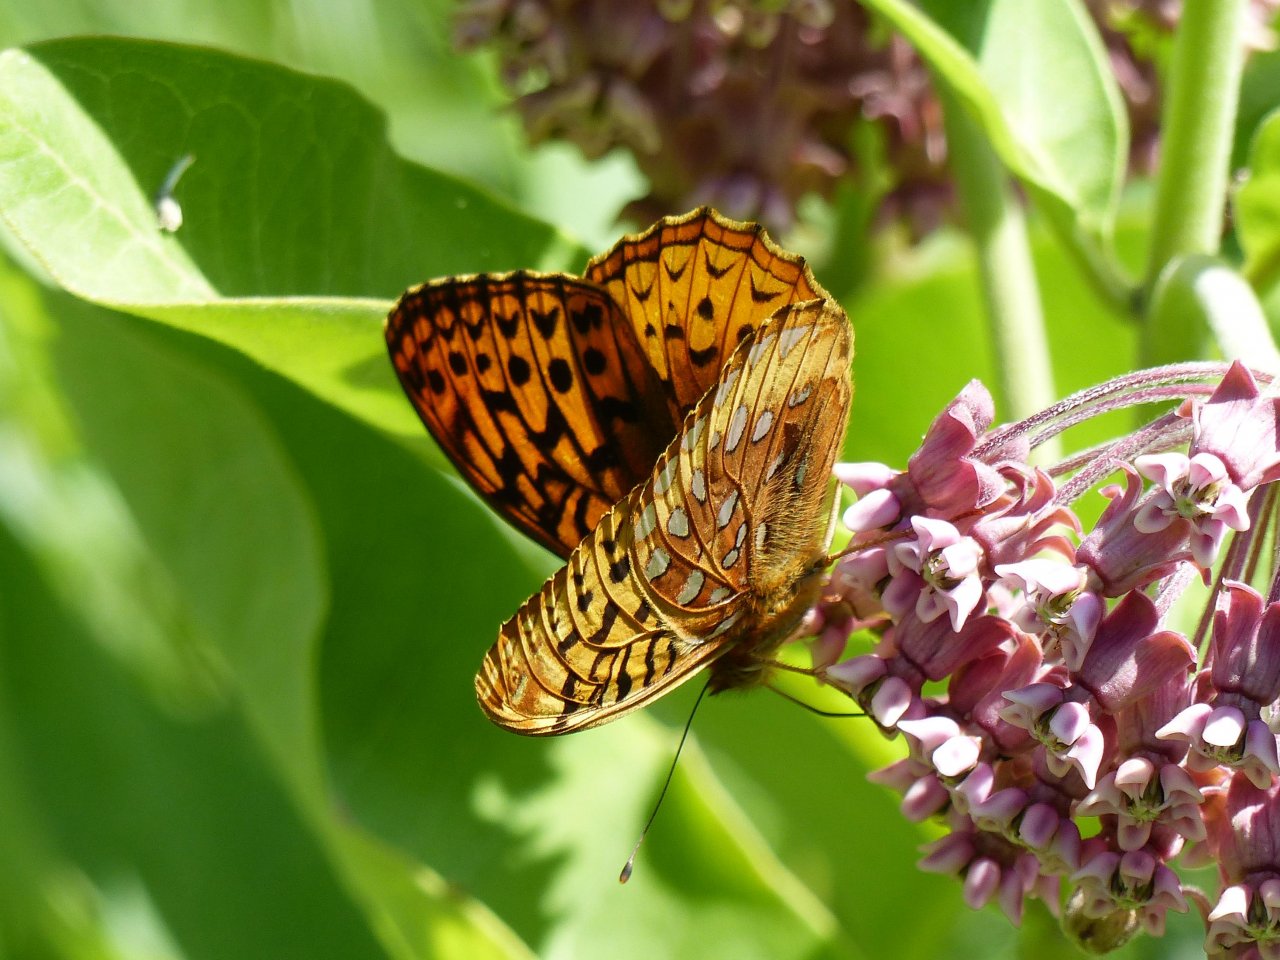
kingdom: Animalia
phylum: Arthropoda
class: Insecta
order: Lepidoptera
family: Nymphalidae
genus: Speyeria
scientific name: Speyeria cybele
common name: Great Spangled Fritillary
